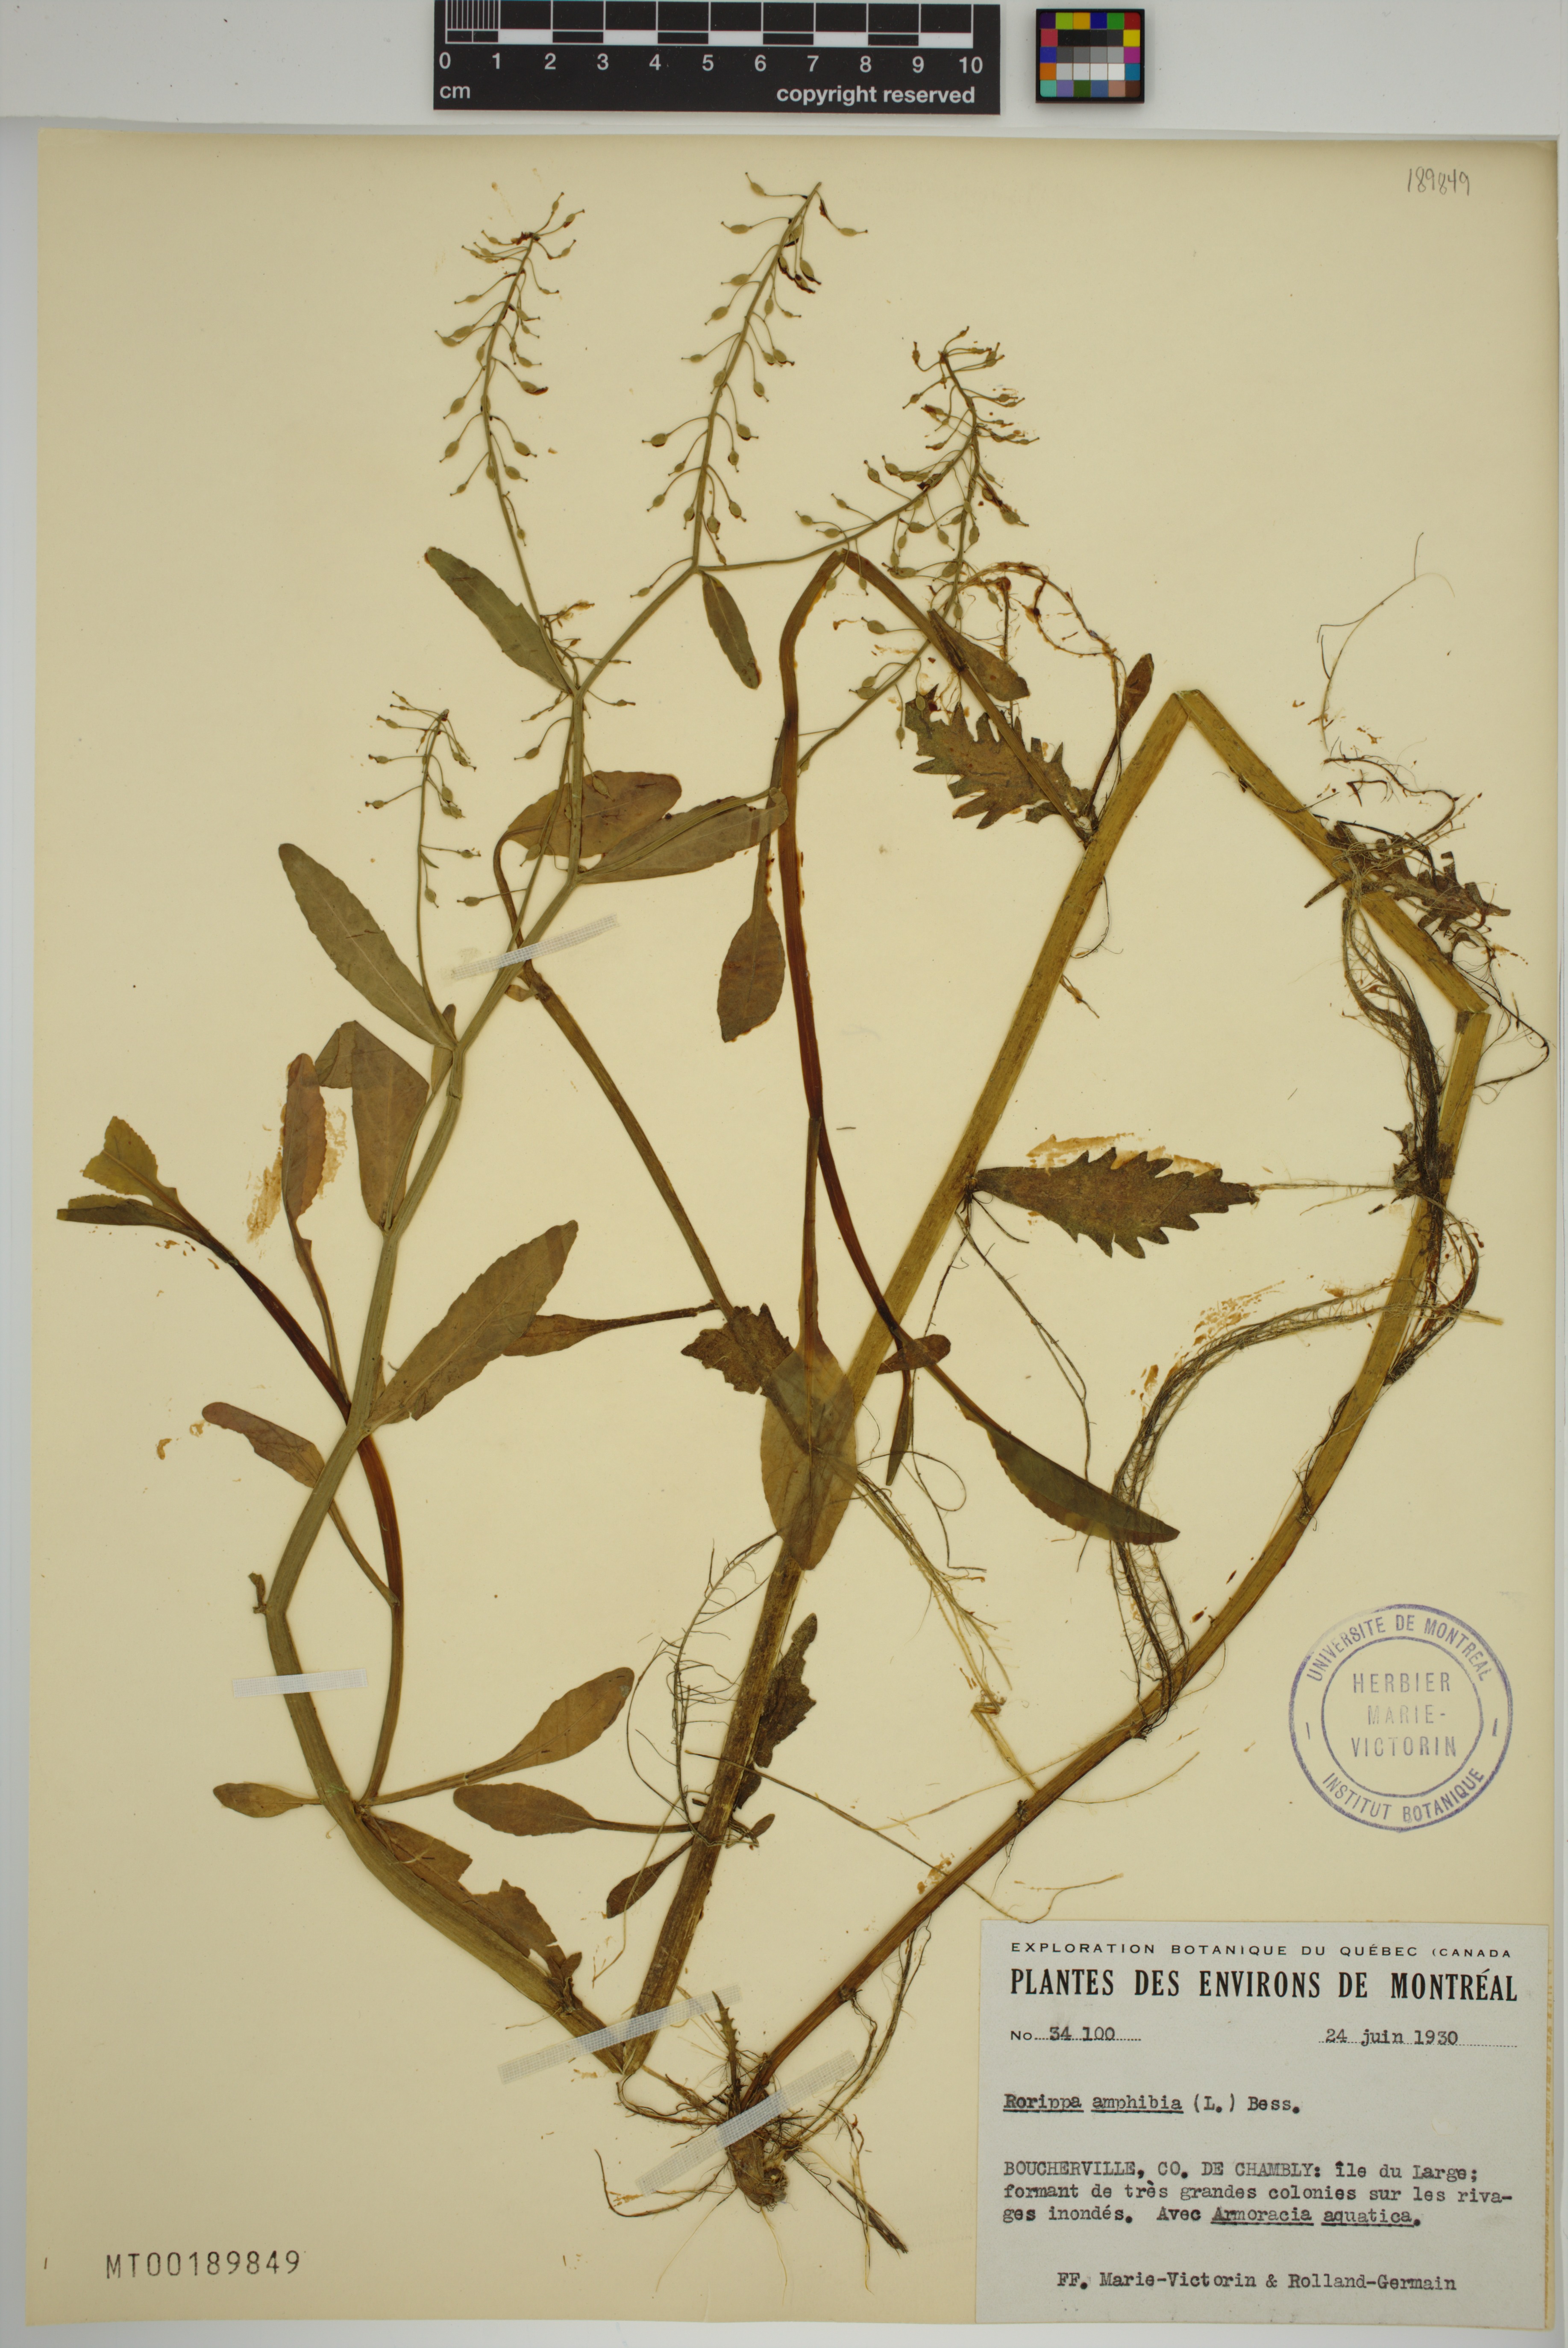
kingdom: Plantae
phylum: Tracheophyta
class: Magnoliopsida
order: Brassicales
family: Brassicaceae
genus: Rorippa
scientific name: Rorippa amphibia
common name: Great yellow-cress
